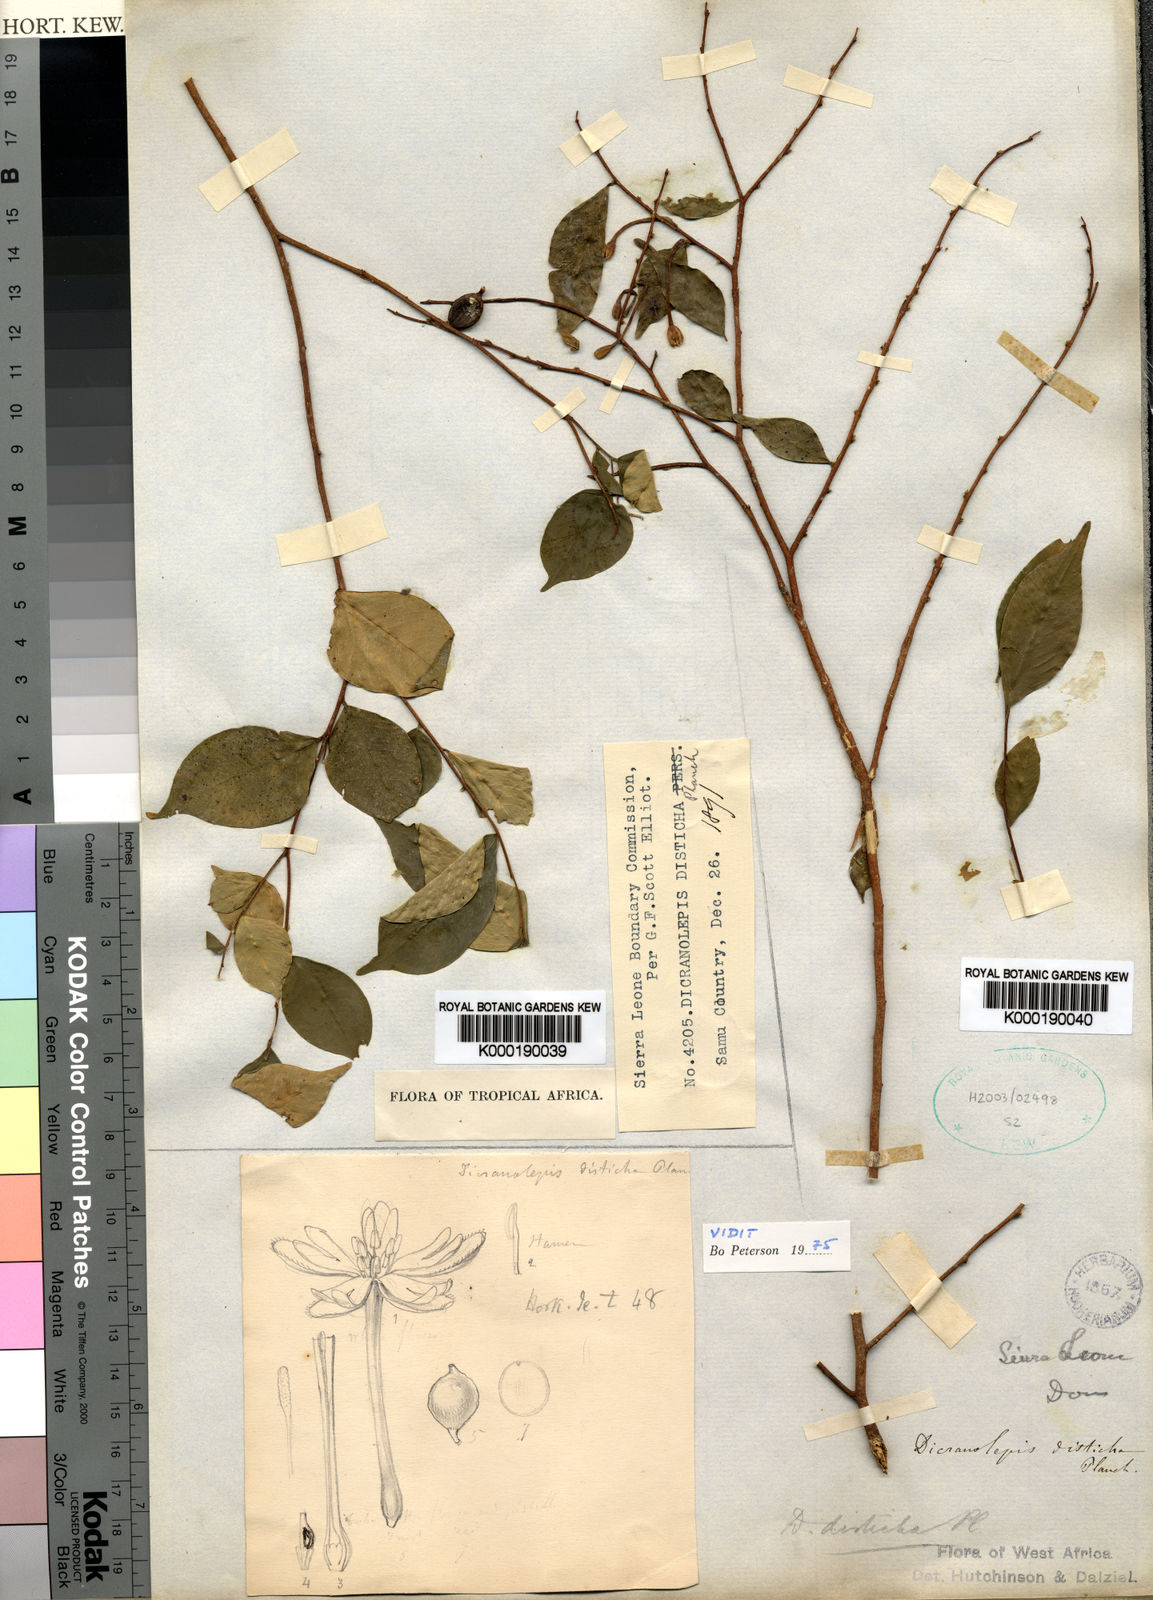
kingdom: Plantae
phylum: Tracheophyta
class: Magnoliopsida
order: Malvales
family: Thymelaeaceae
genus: Dicranolepis
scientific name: Dicranolepis disticha
